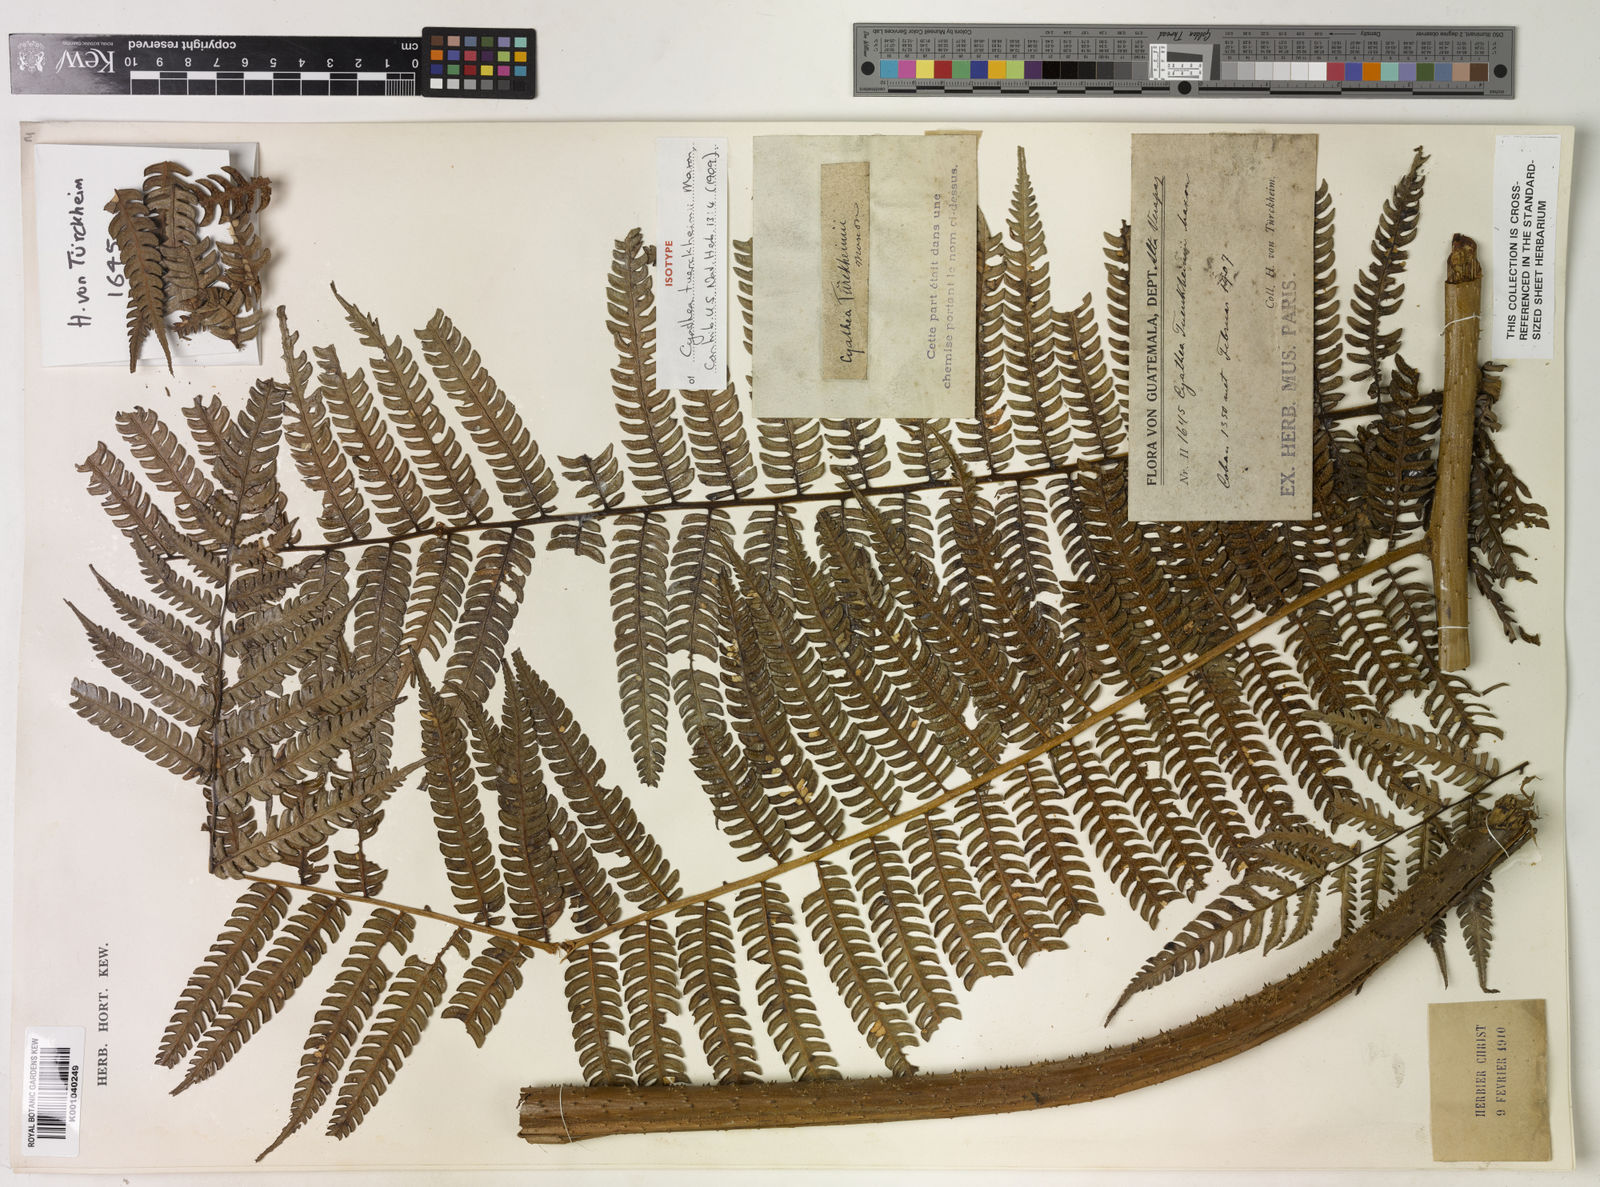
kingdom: Plantae
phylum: Tracheophyta
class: Polypodiopsida
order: Cyatheales
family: Cyatheaceae
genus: Cyathea
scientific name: Cyathea tuerckheimii
